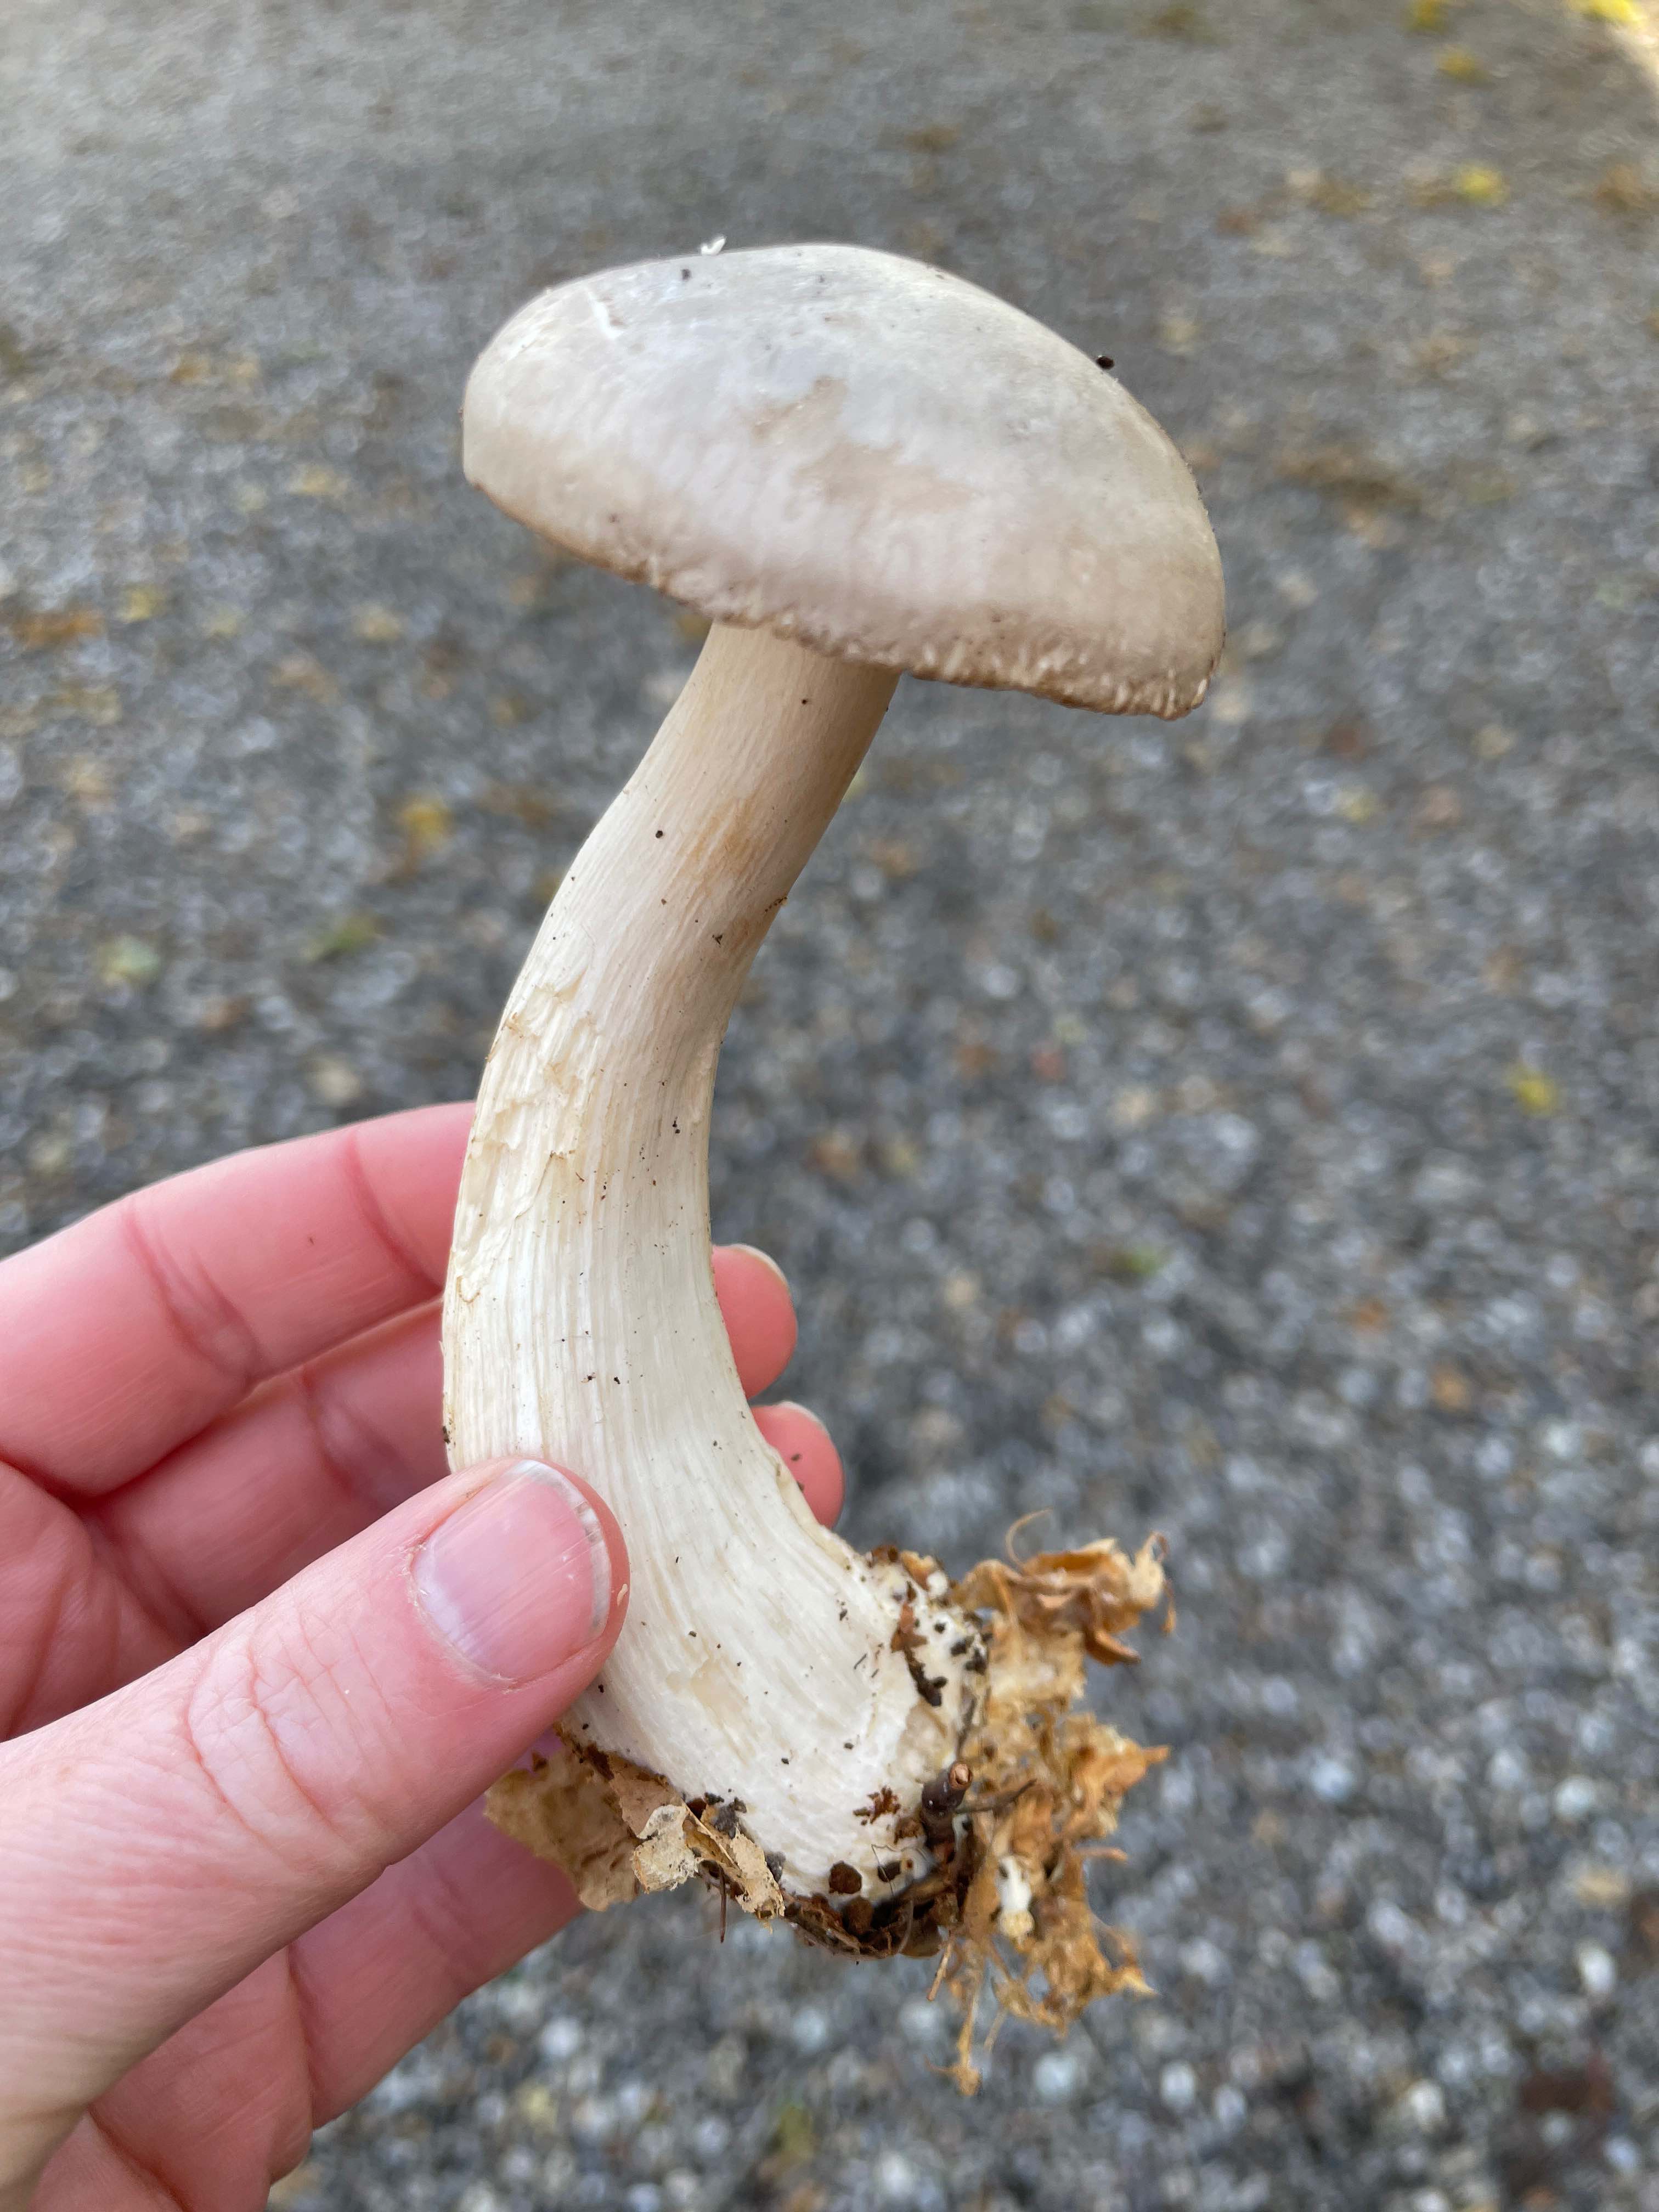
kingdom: Fungi
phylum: Basidiomycota
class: Agaricomycetes
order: Agaricales
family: Tricholomataceae
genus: Clitocybe
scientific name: Clitocybe nebularis
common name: tåge-tragthat
